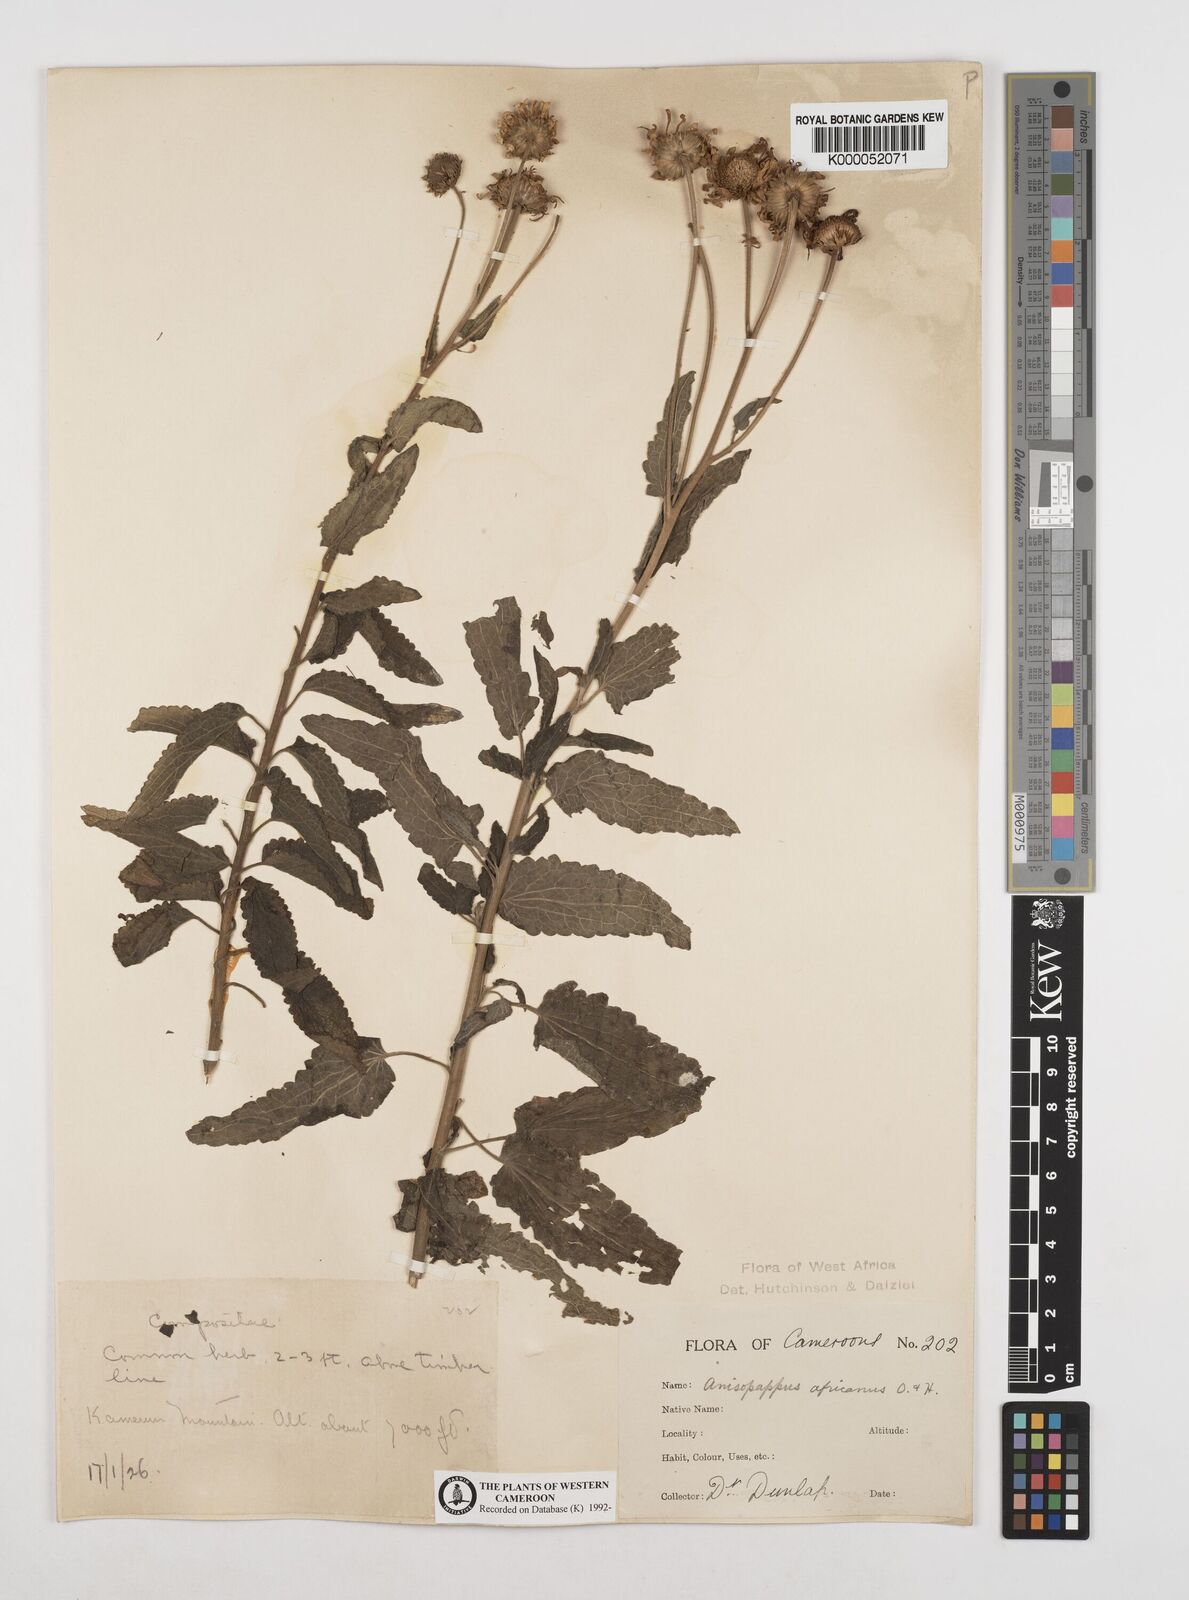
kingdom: Plantae
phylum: Tracheophyta
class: Magnoliopsida
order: Asterales
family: Asteraceae
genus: Anisopappus
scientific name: Anisopappus africanus
